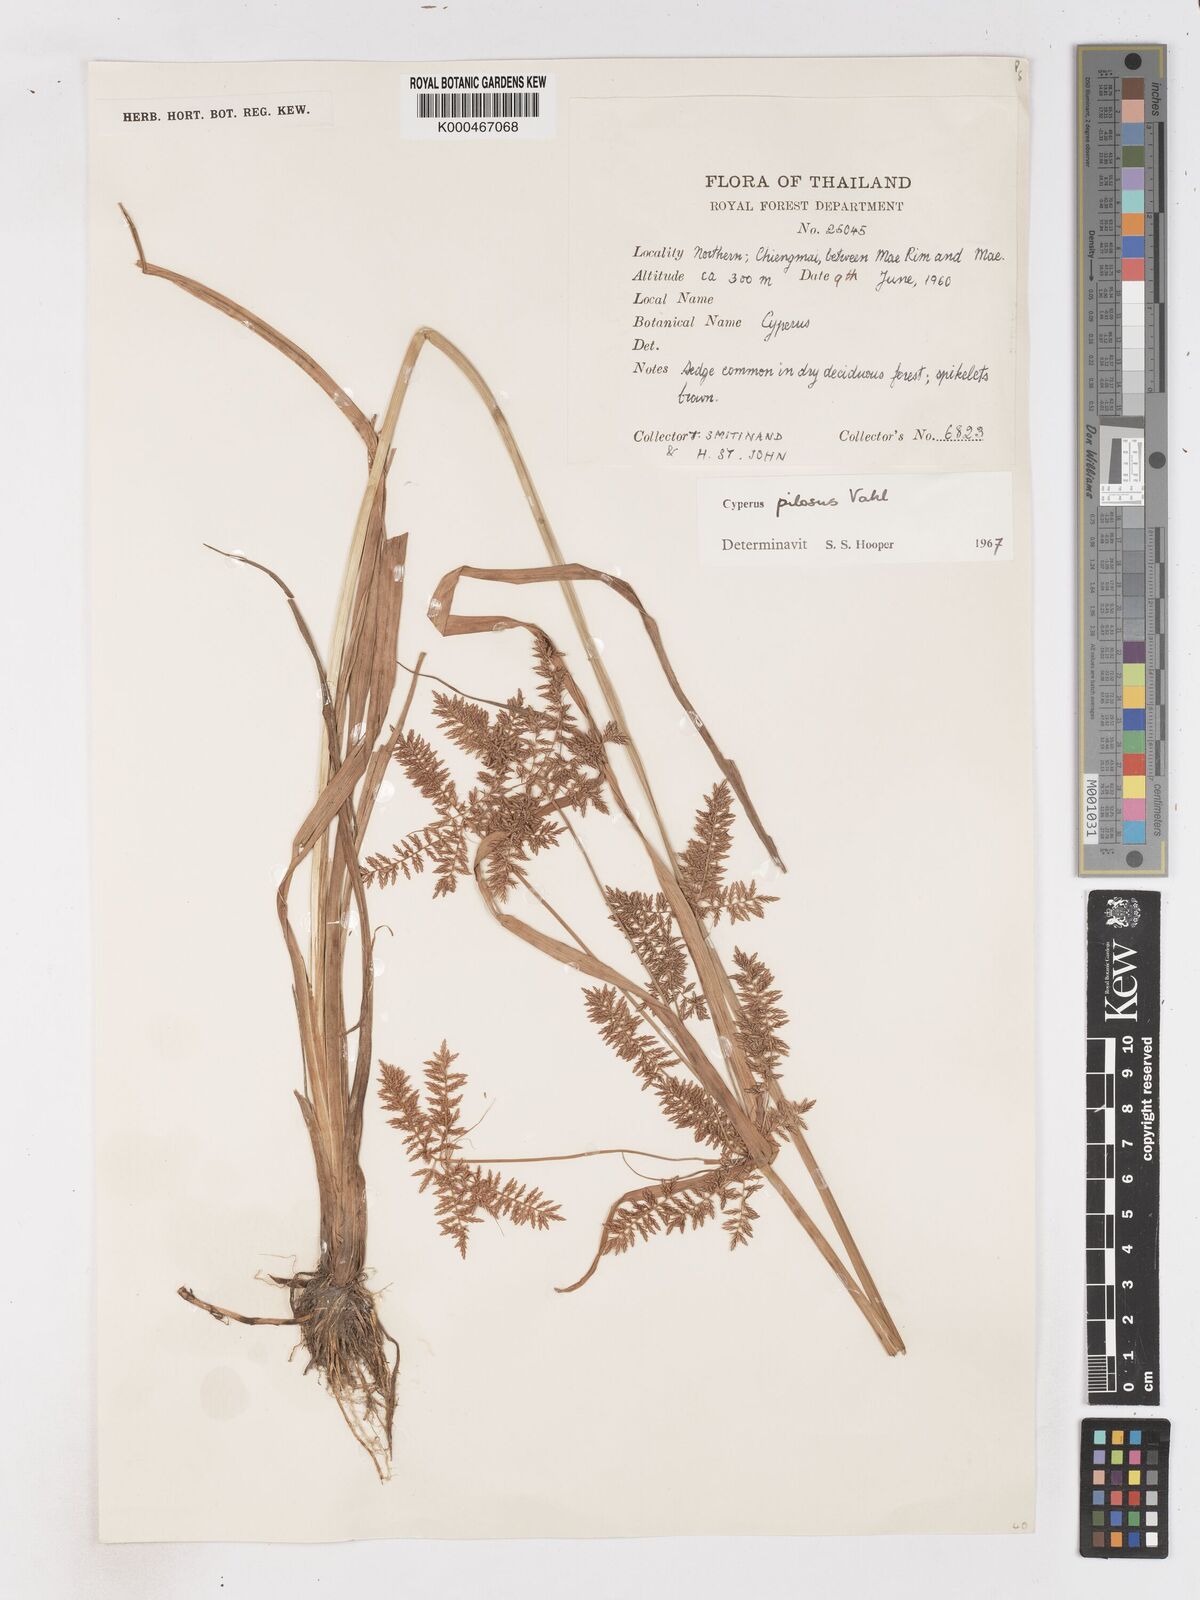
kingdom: Plantae
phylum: Tracheophyta
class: Liliopsida
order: Poales
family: Cyperaceae
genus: Cyperus
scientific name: Cyperus pilosus
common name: Fuzzy flatsedge
